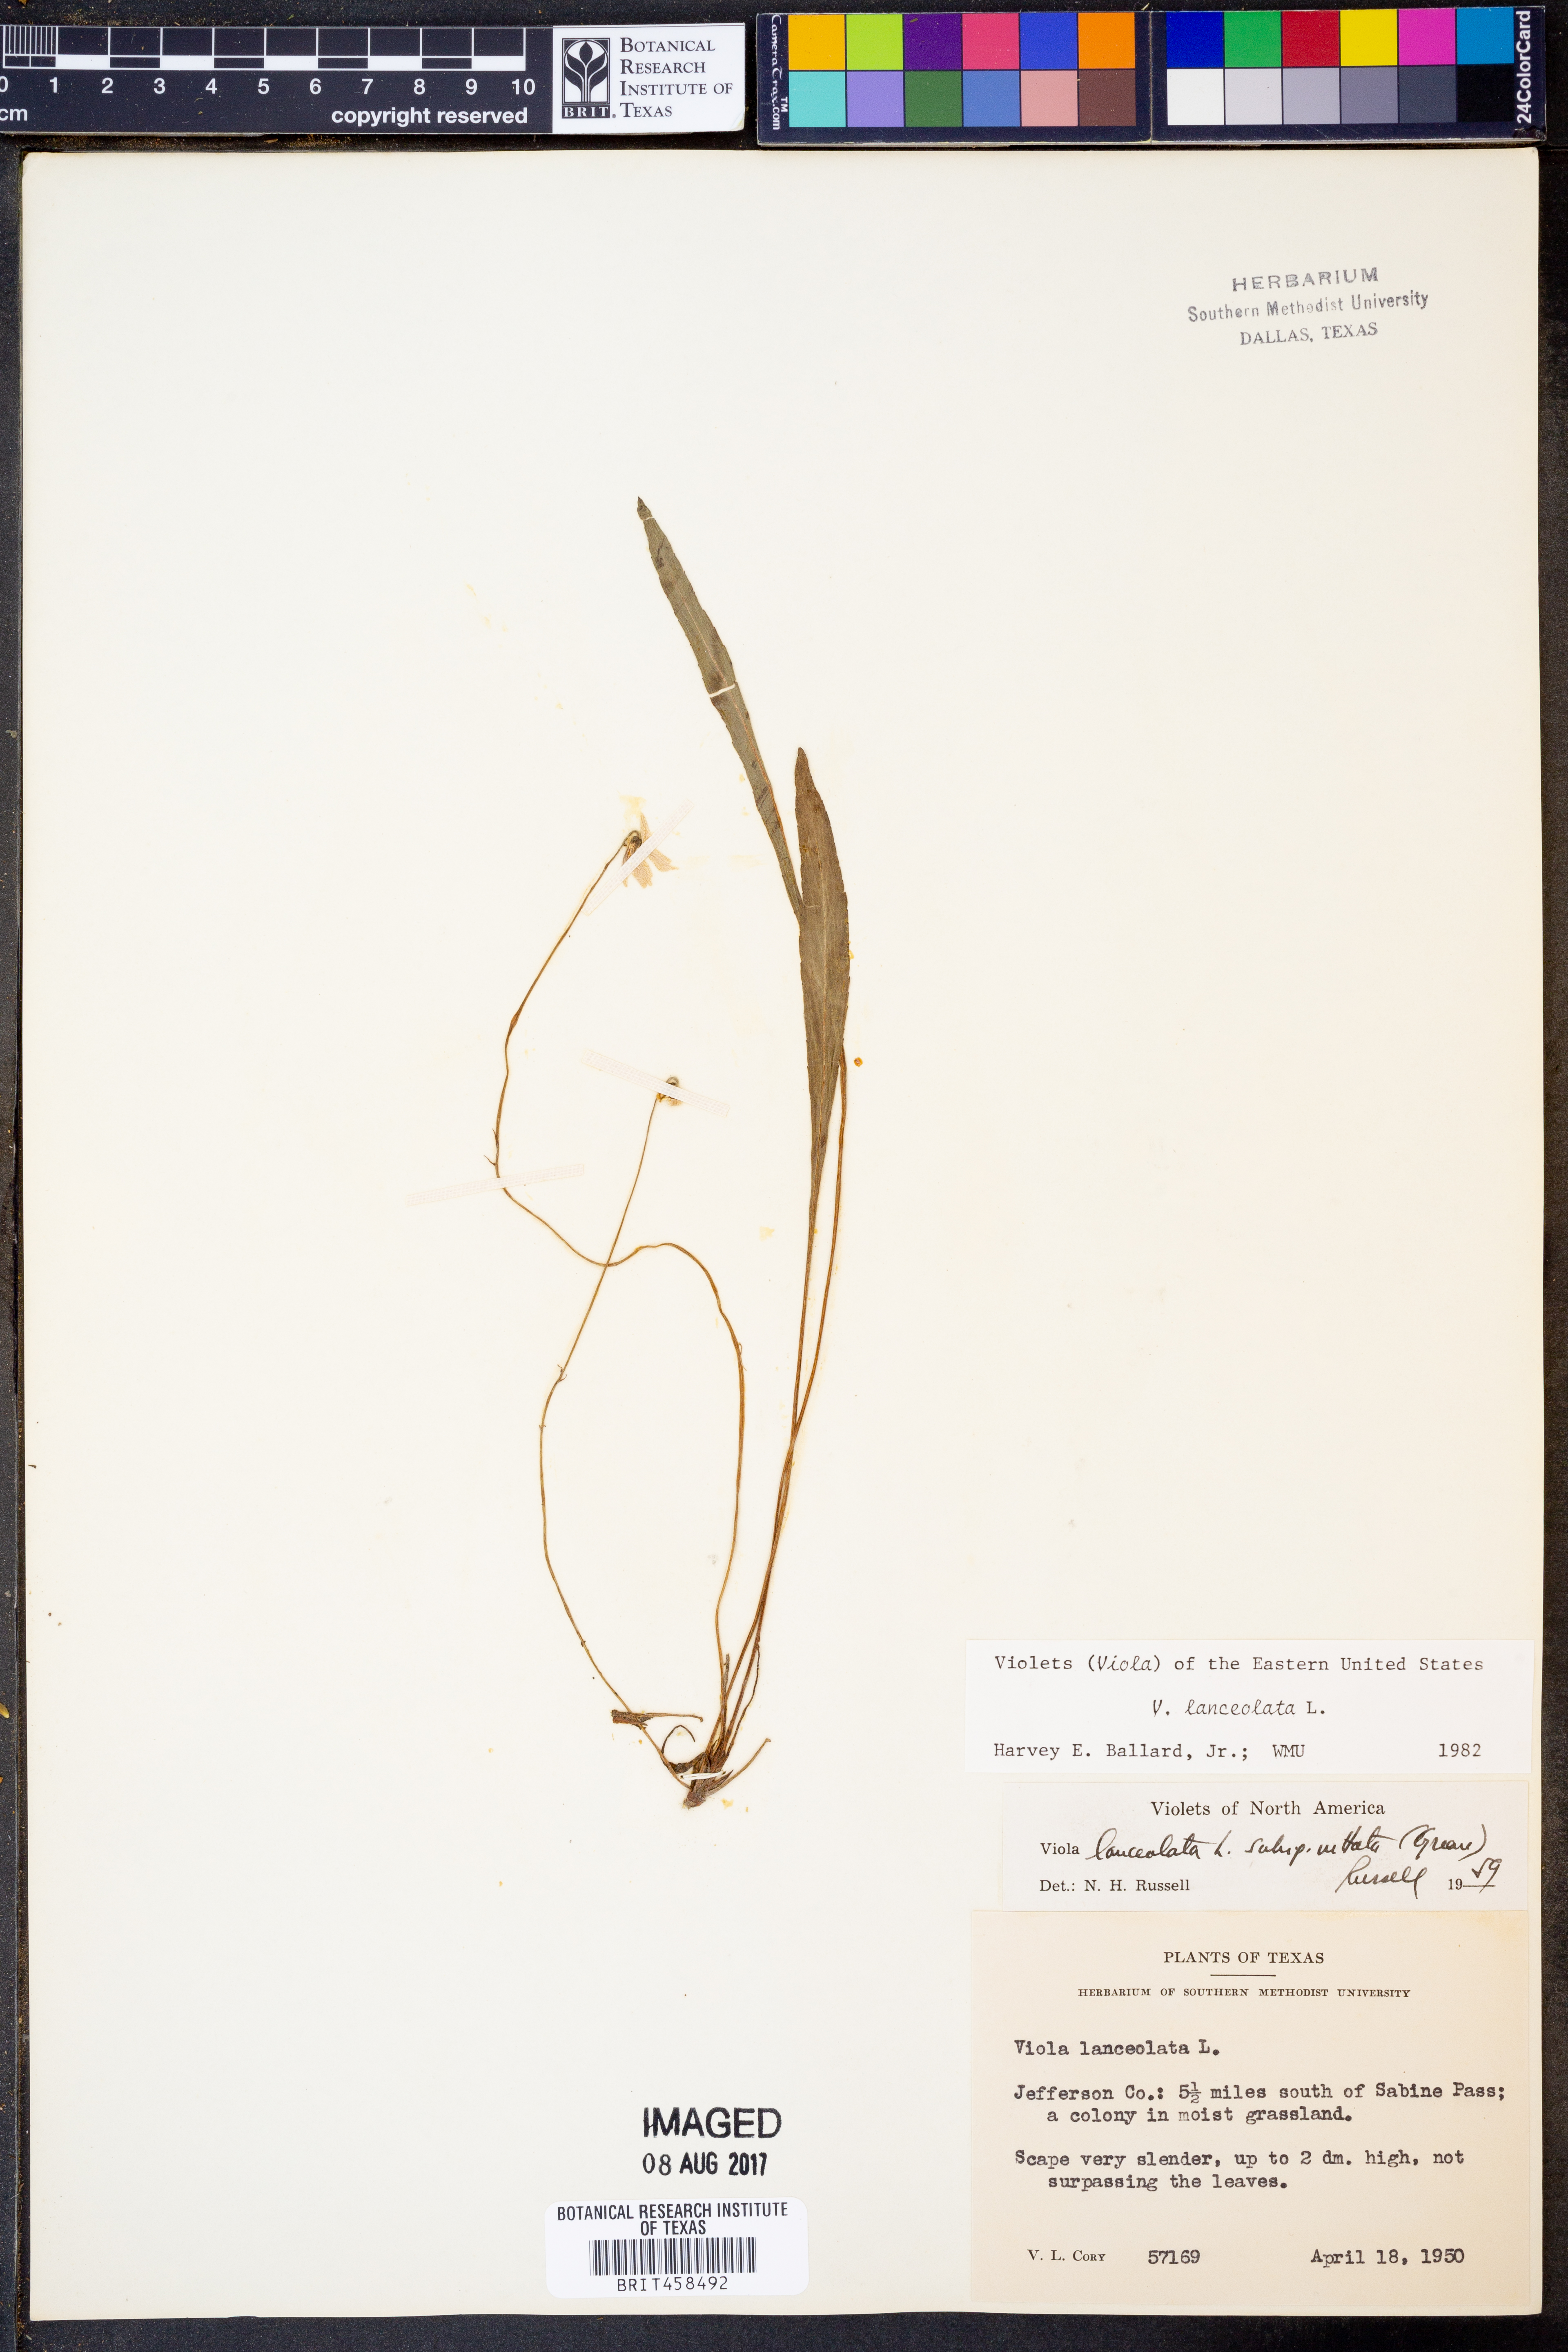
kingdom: Plantae
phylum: Tracheophyta
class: Magnoliopsida
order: Malpighiales
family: Violaceae
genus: Viola
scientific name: Viola vittata
